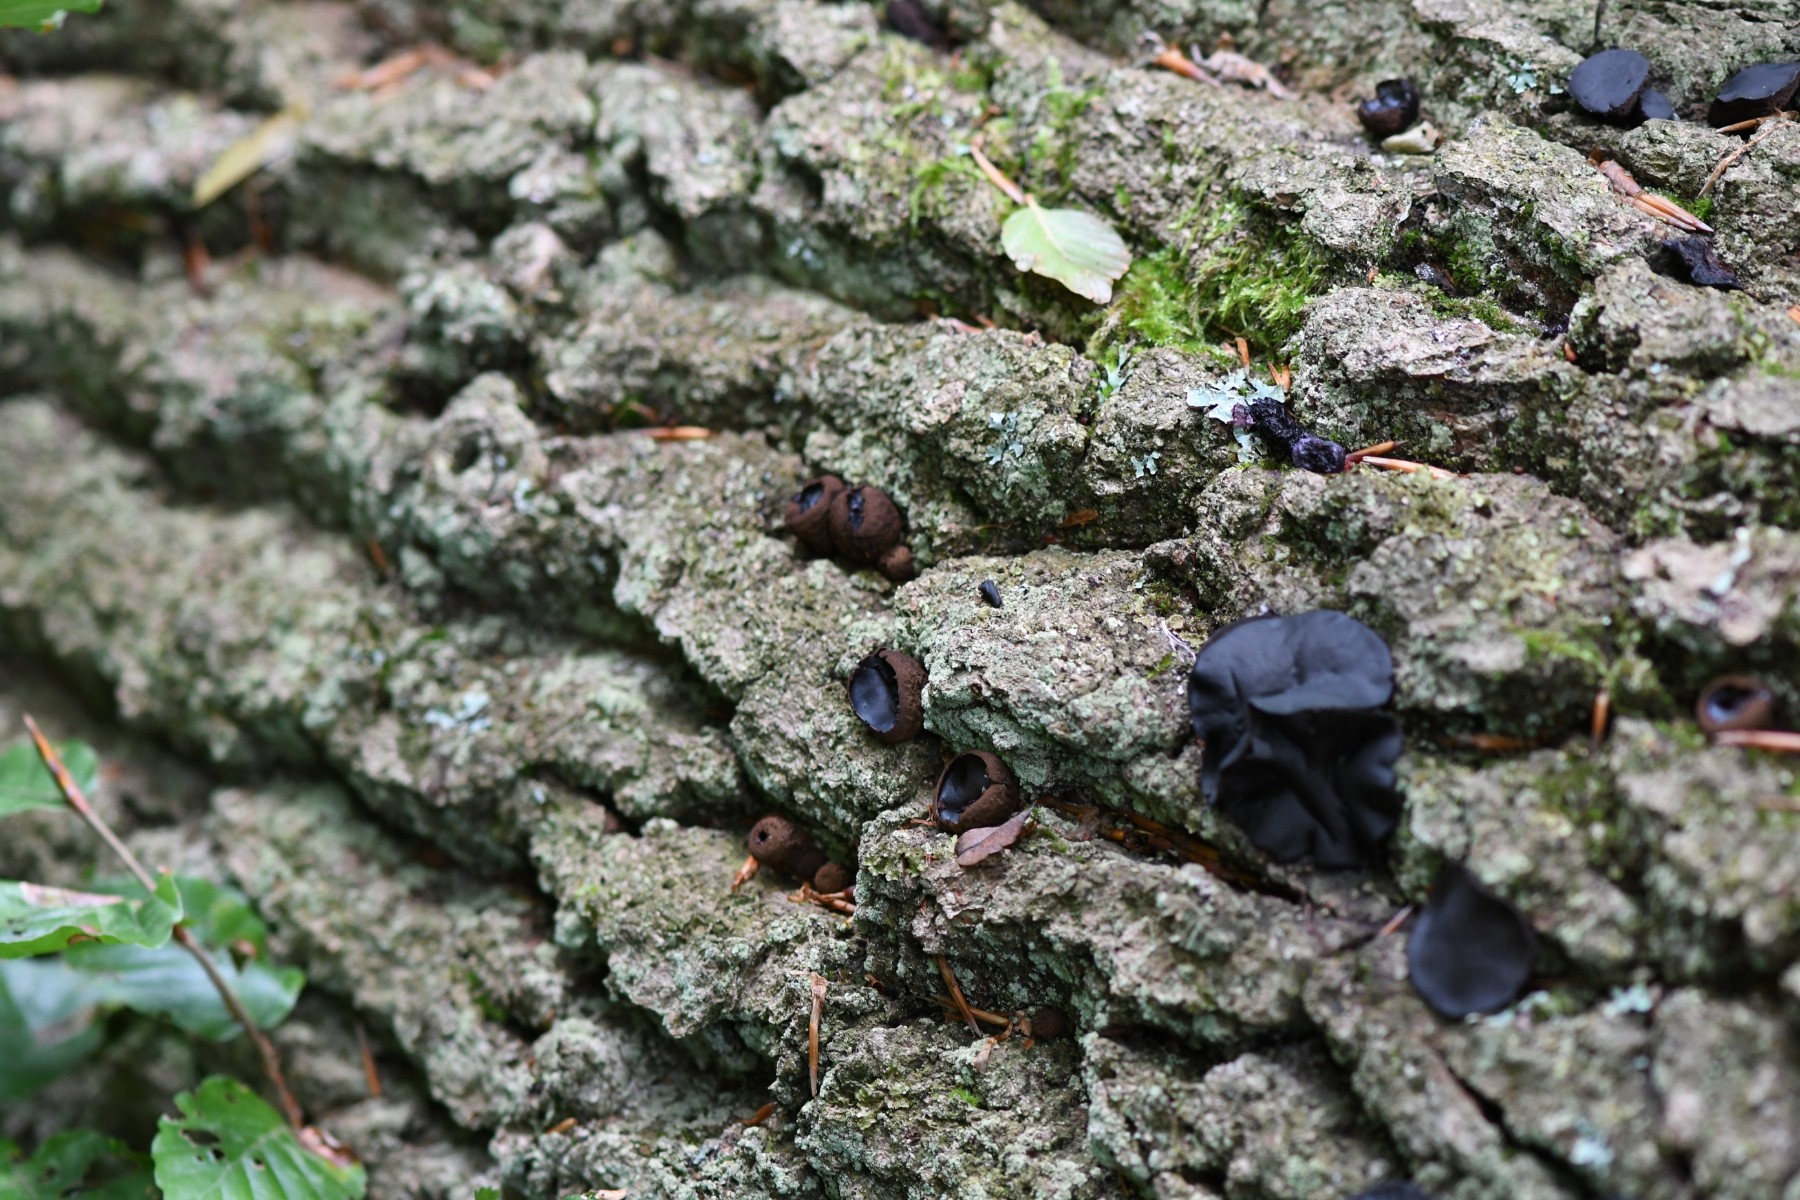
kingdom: Fungi
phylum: Ascomycota
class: Leotiomycetes
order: Phacidiales
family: Phacidiaceae
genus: Bulgaria
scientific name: Bulgaria inquinans
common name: afsmittende topsvamp
